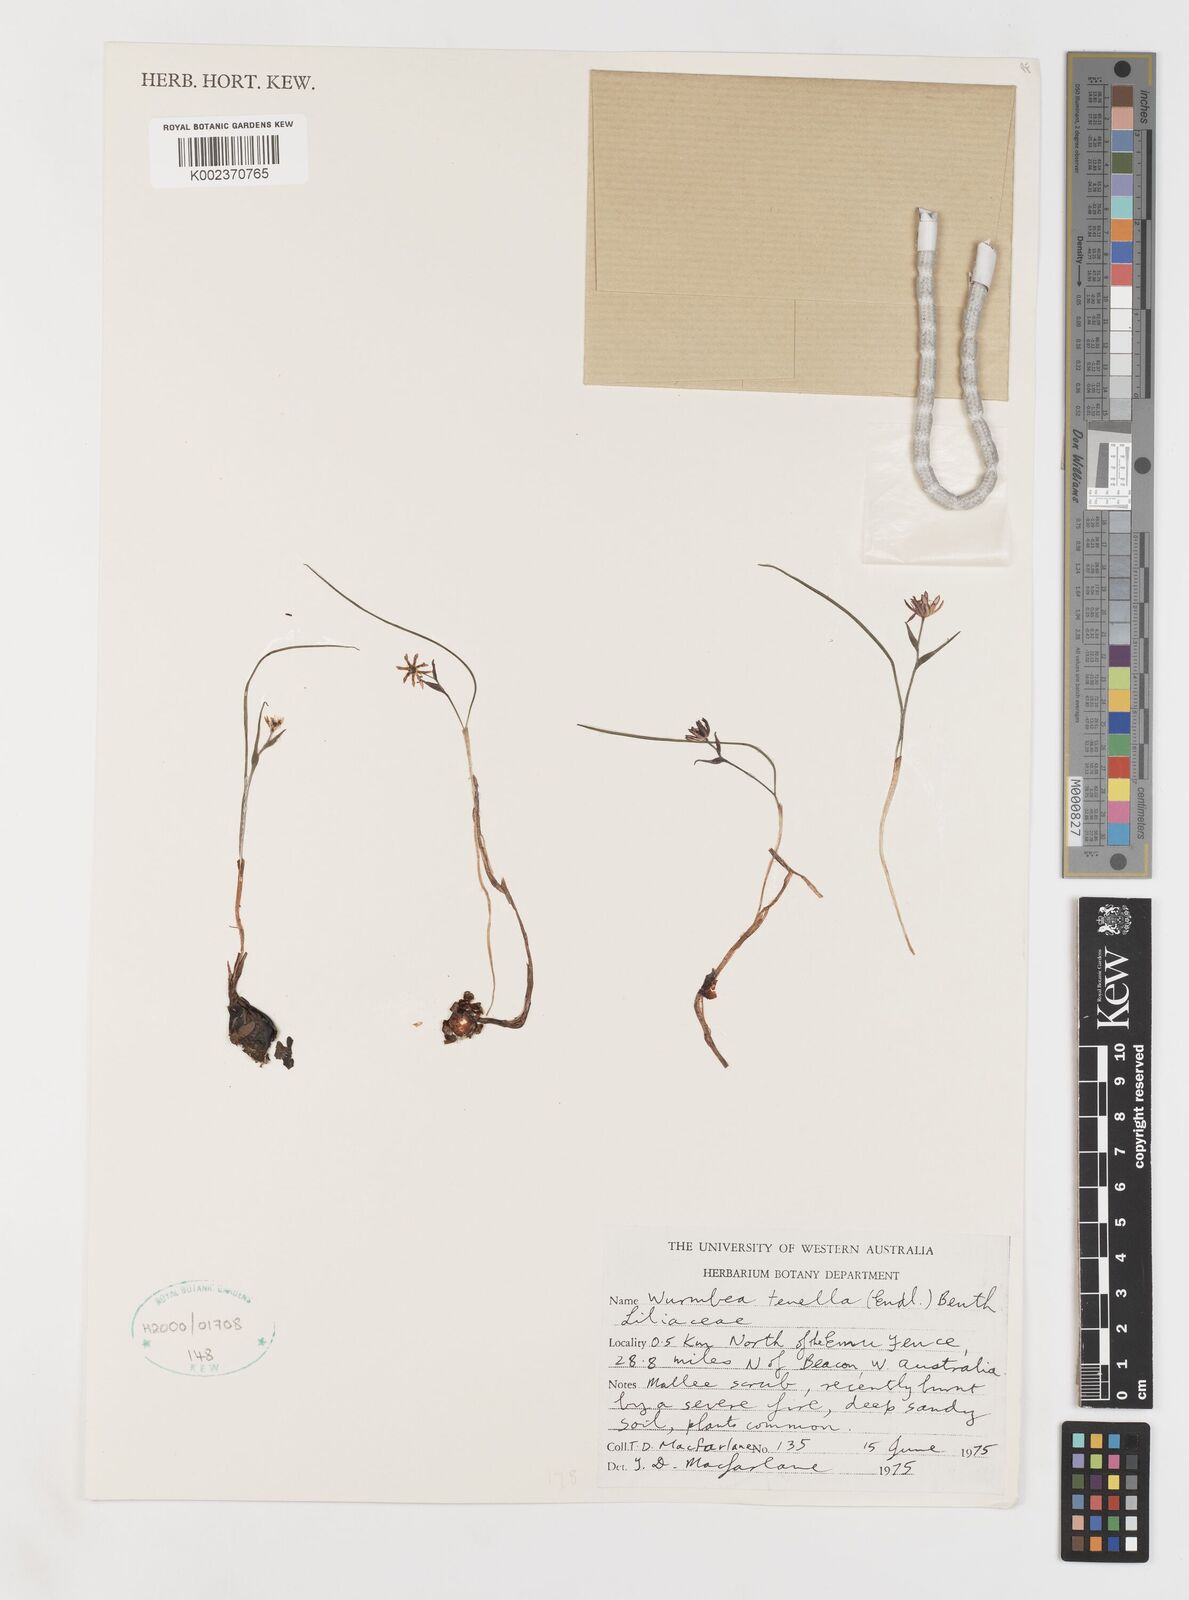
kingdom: Plantae
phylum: Tracheophyta
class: Liliopsida
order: Liliales
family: Colchicaceae
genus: Wurmbea
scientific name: Wurmbea tenella
